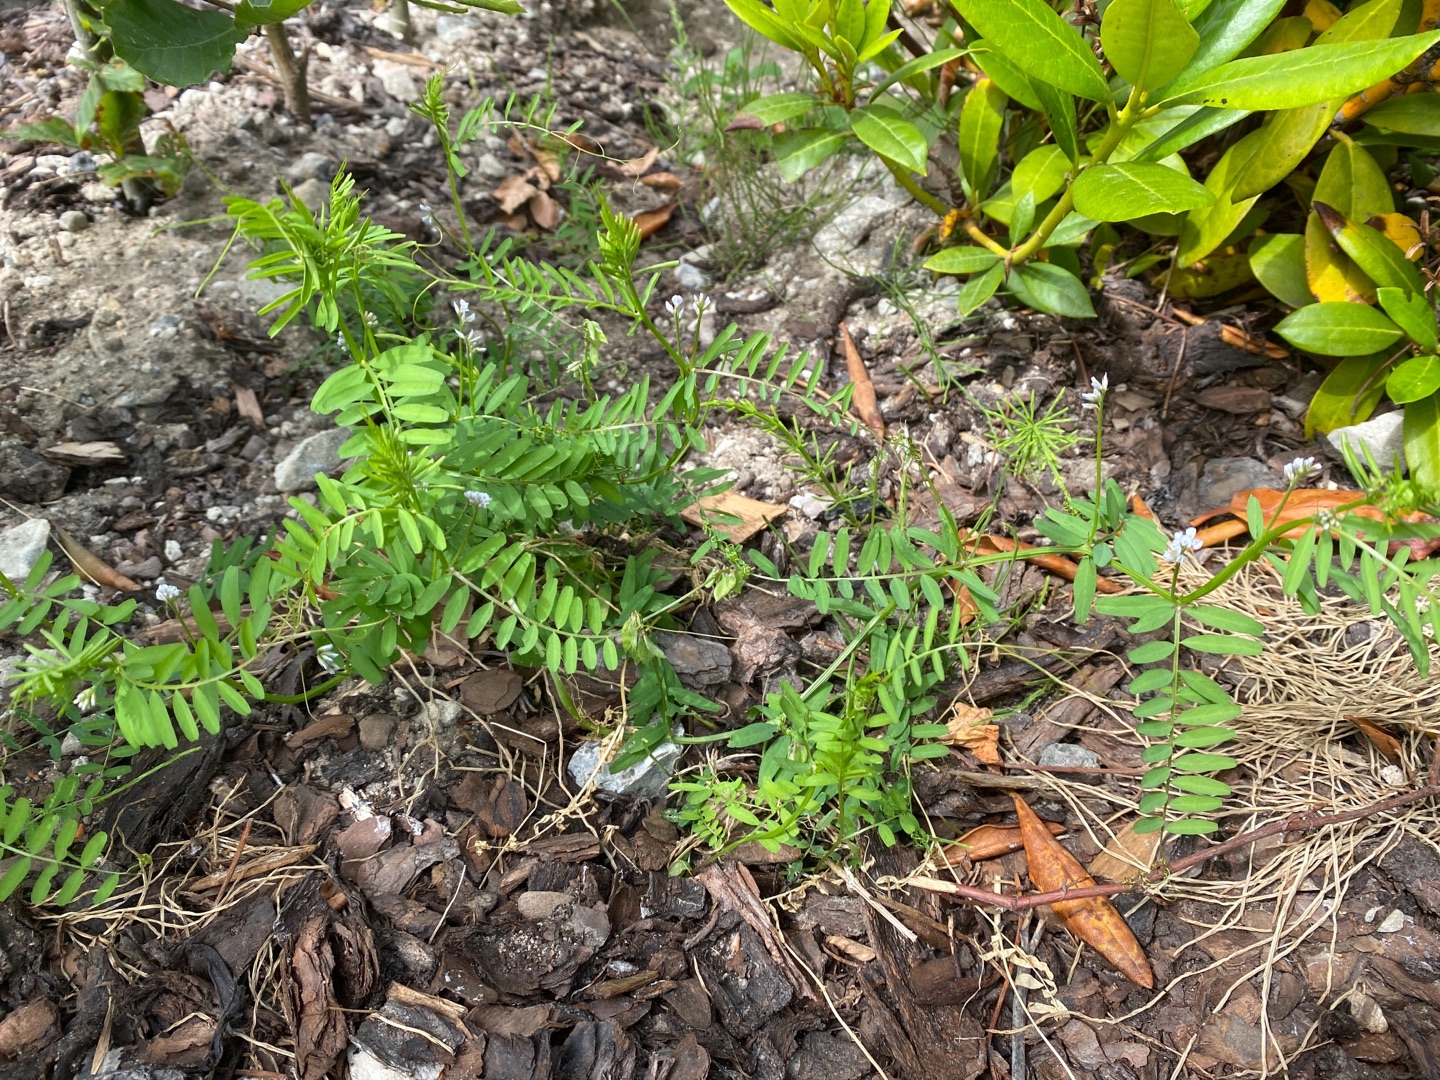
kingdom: Plantae
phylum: Tracheophyta
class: Magnoliopsida
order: Fabales
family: Fabaceae
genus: Vicia
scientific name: Vicia hirsuta
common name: Tofrøet vikke
